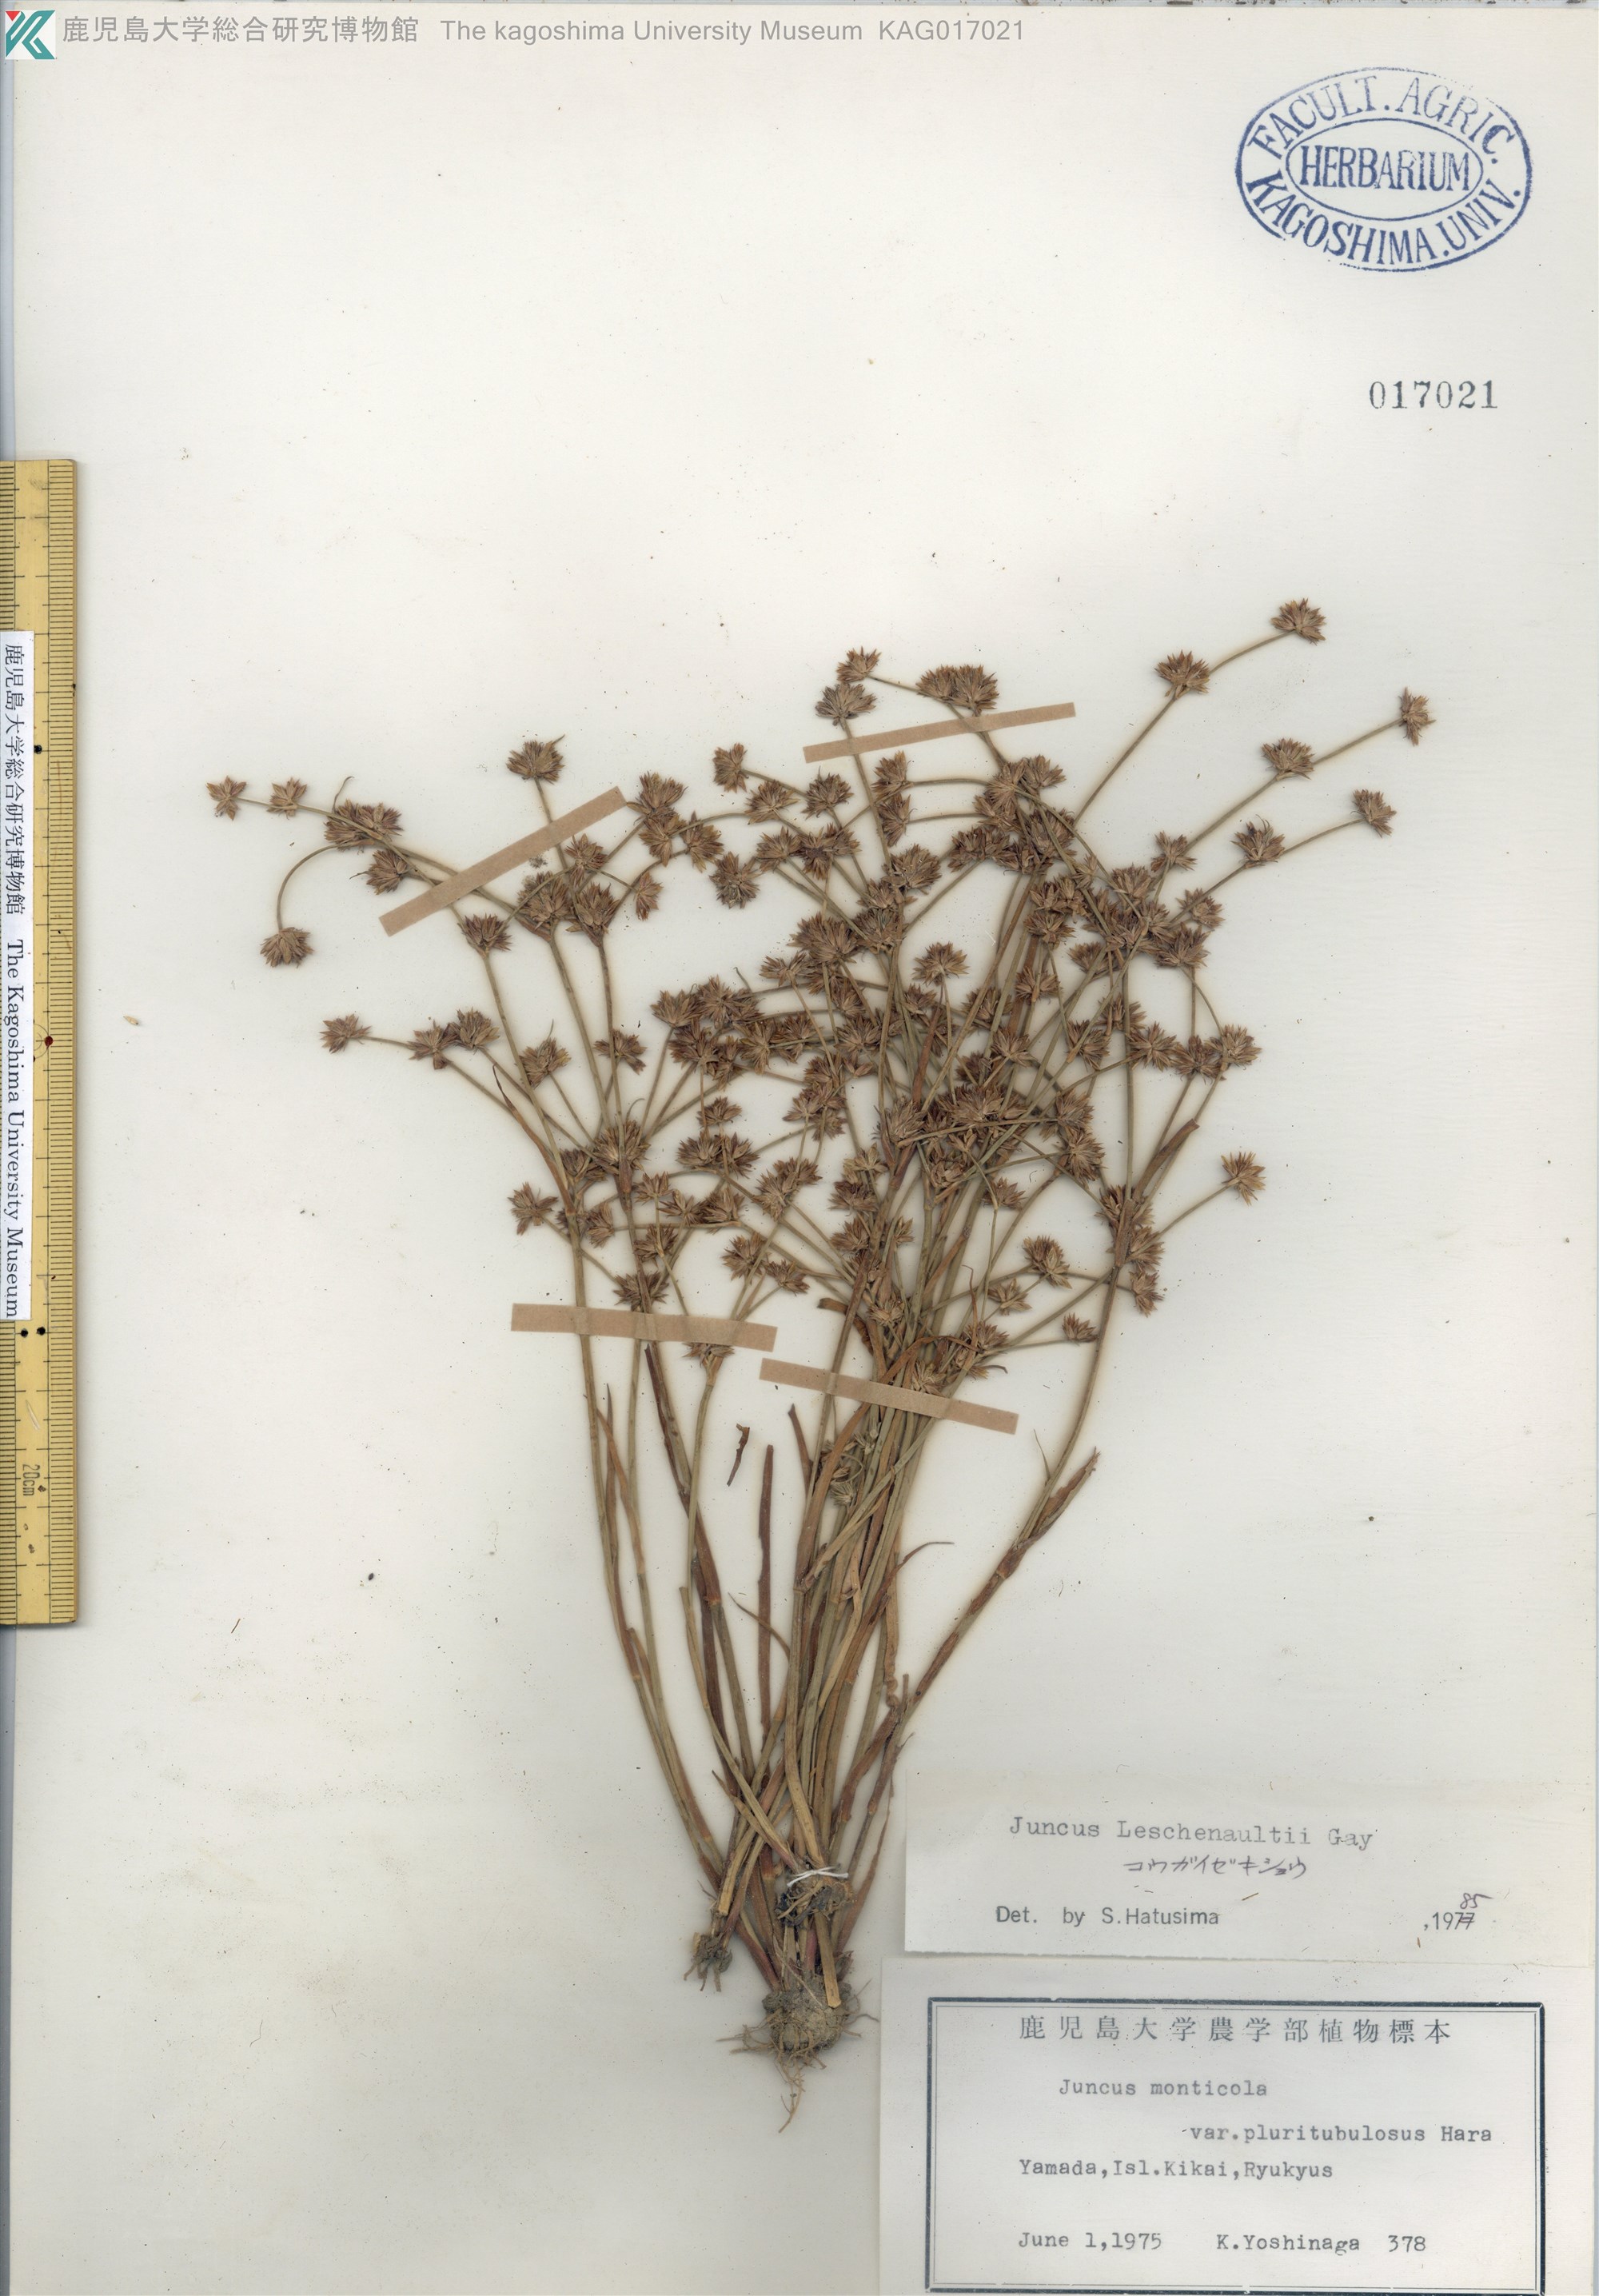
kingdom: Plantae
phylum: Tracheophyta
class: Liliopsida
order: Poales
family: Juncaceae
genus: Juncus
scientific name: Juncus prismatocarpus
